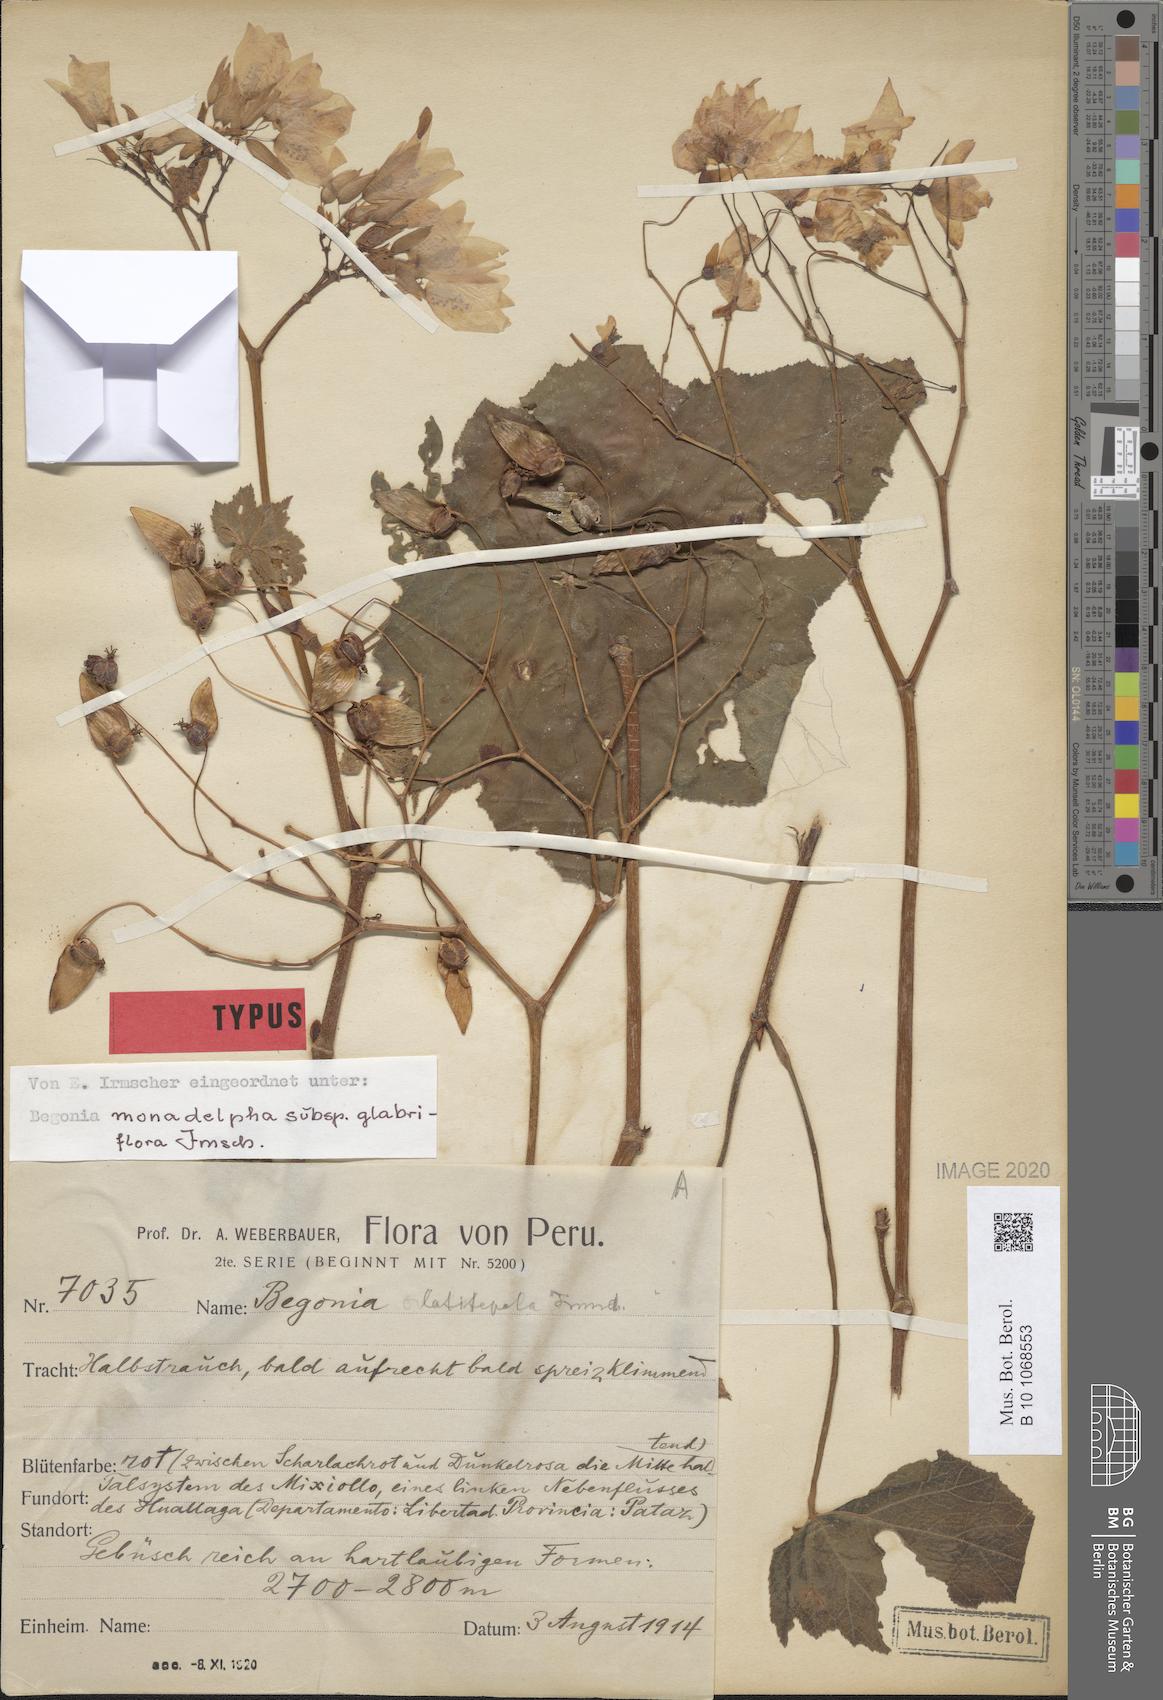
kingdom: Plantae
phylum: Tracheophyta
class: Magnoliopsida
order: Cucurbitales
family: Begoniaceae
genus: Begonia
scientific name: Begonia monadelpha
